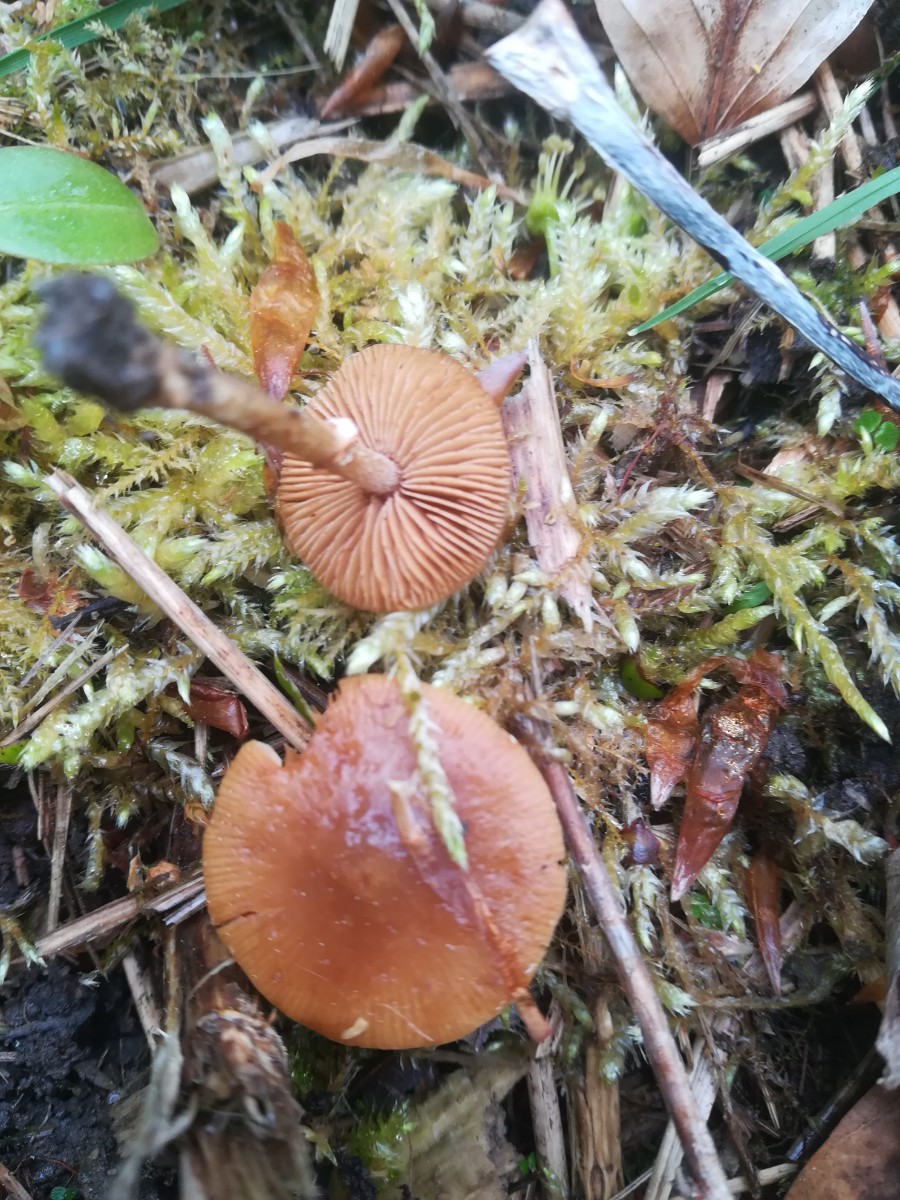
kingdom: Fungi
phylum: Basidiomycota
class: Agaricomycetes
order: Agaricales
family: Bolbitiaceae
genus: Conocybe
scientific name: Conocybe aporos
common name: tidlig dansehat
